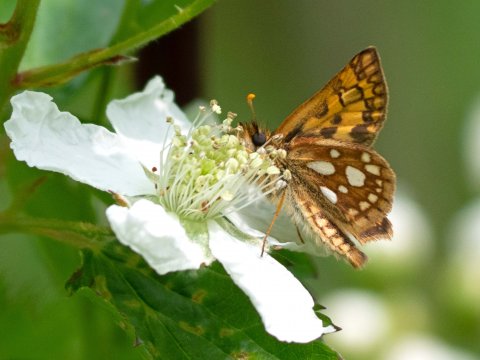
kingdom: Animalia
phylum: Arthropoda
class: Insecta
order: Lepidoptera
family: Hesperiidae
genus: Carterocephalus
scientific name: Carterocephalus palaemon
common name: Chequered Skipper
